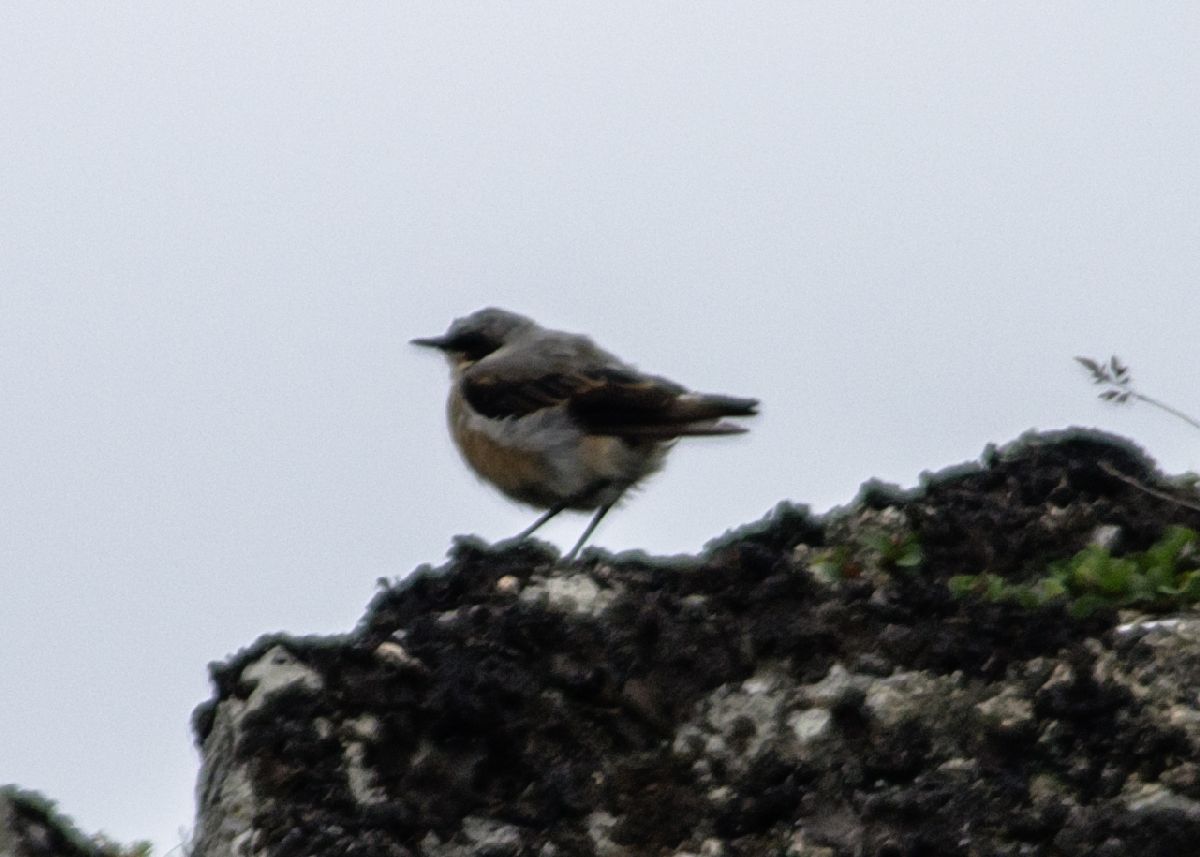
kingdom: Animalia
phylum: Chordata
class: Aves
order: Passeriformes
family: Muscicapidae
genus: Oenanthe
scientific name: Oenanthe oenanthe
